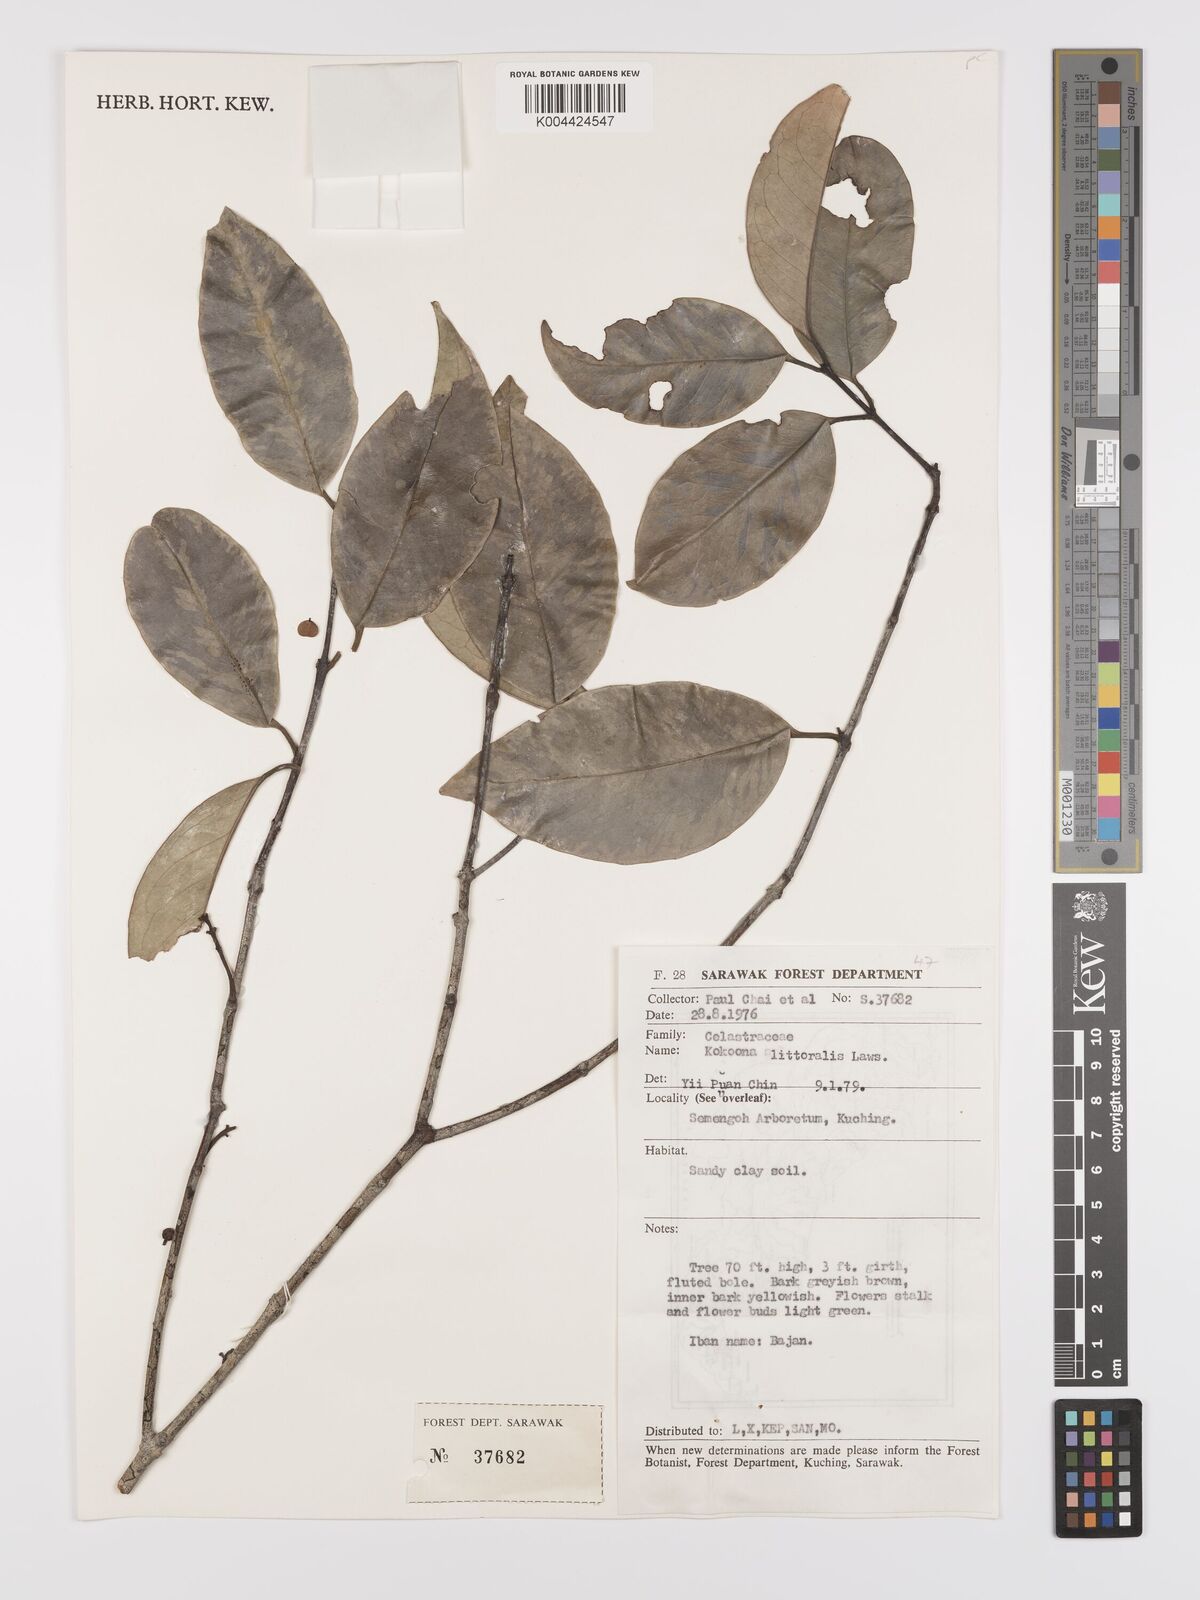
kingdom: Plantae
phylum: Tracheophyta
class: Magnoliopsida
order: Celastrales
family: Celastraceae
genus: Kokoona
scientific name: Kokoona littoralis
